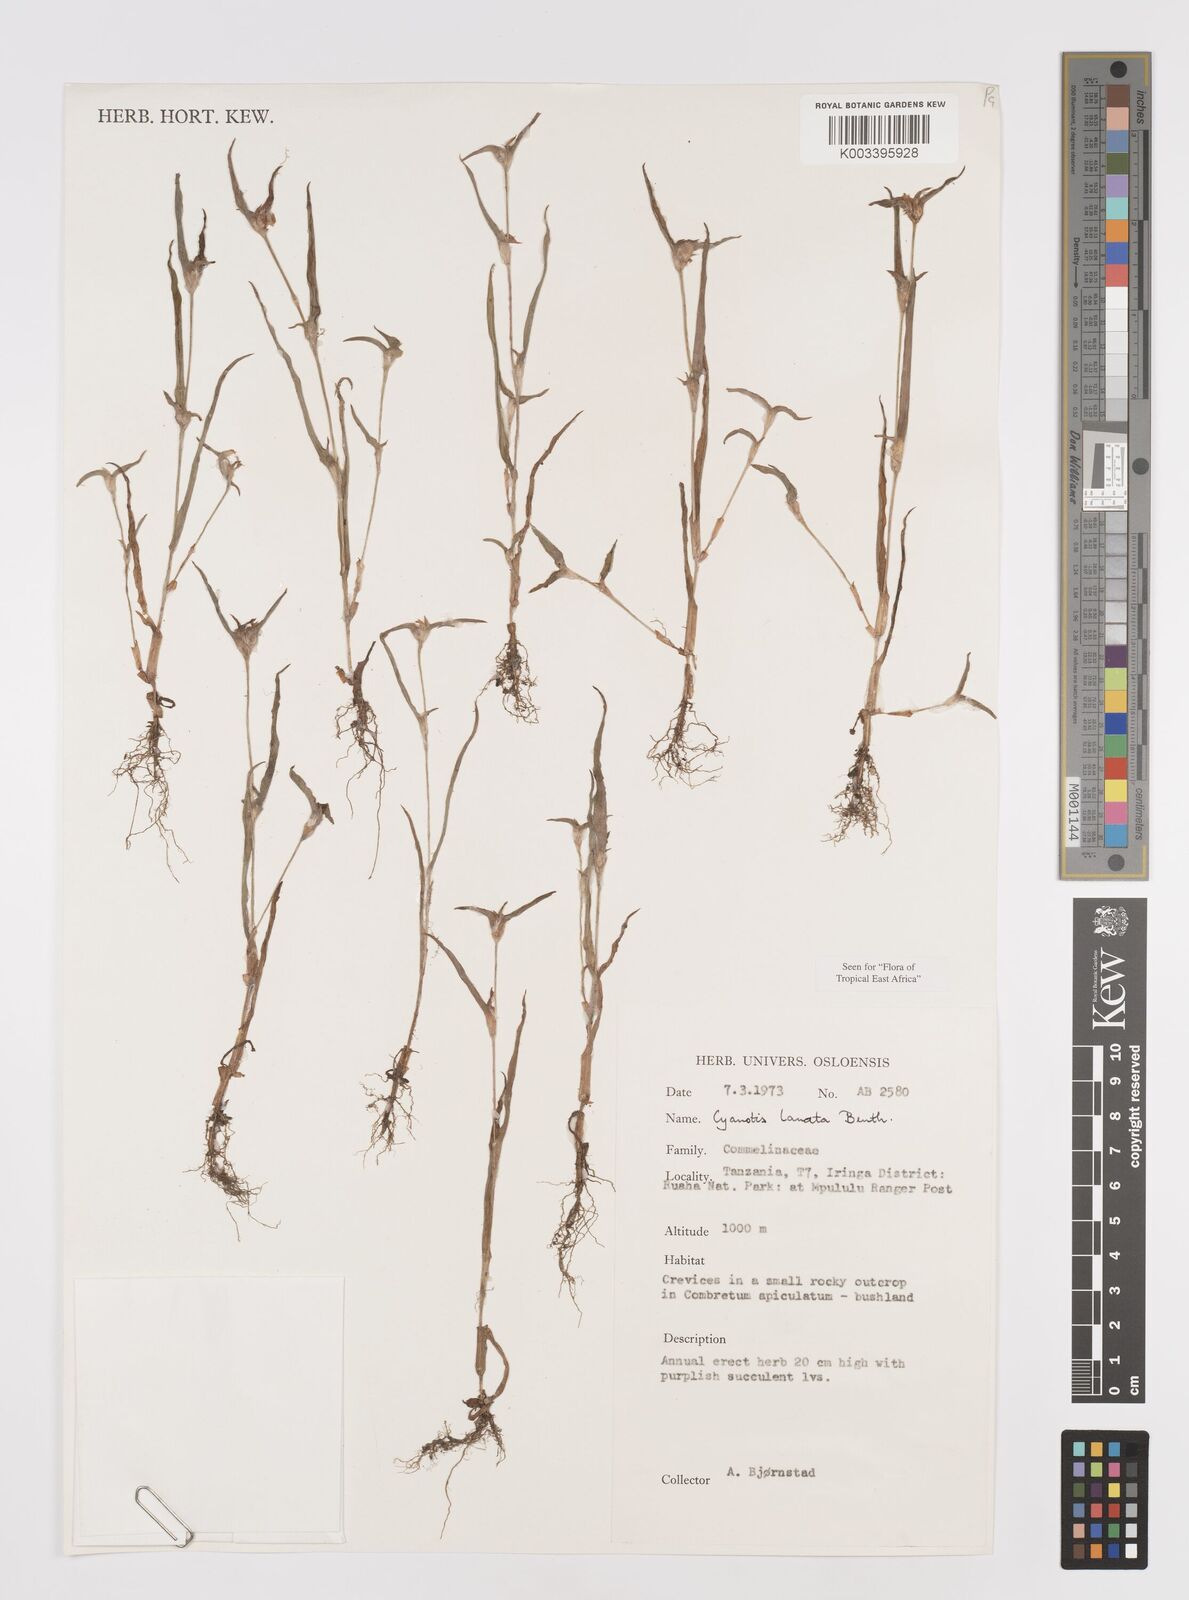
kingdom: Plantae
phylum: Tracheophyta
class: Liliopsida
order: Commelinales
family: Commelinaceae
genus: Cyanotis
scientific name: Cyanotis lanata
